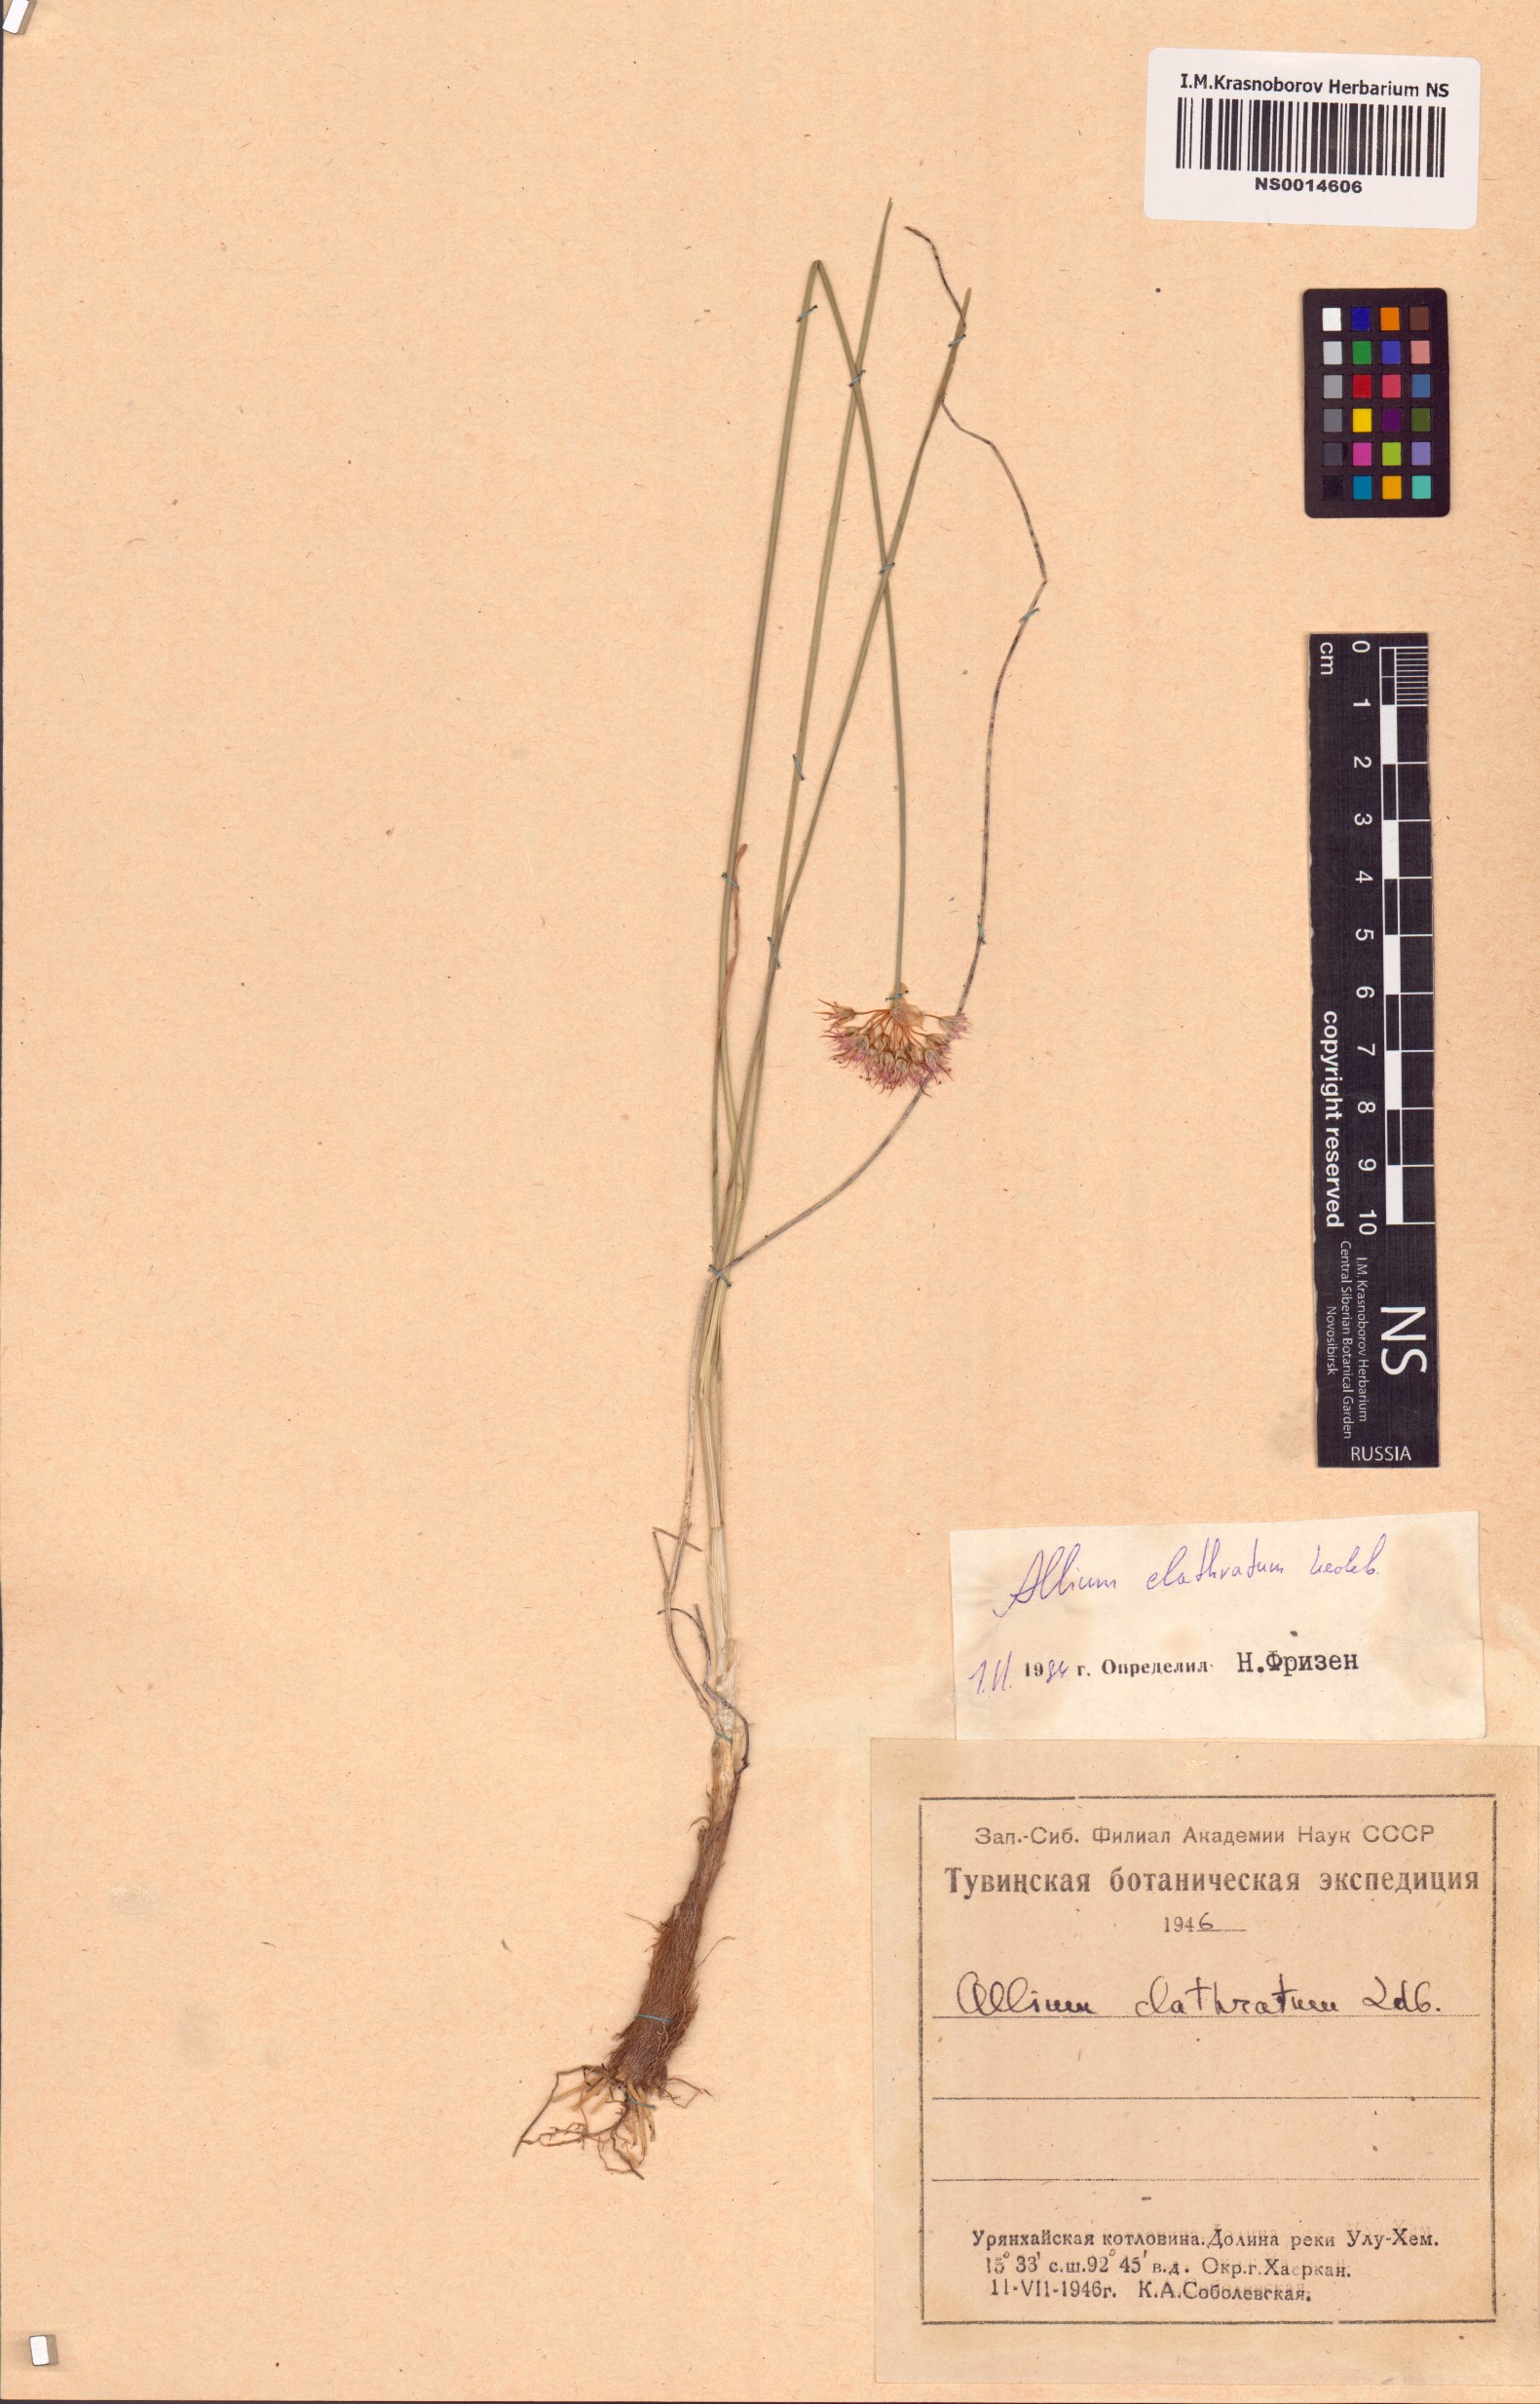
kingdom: Plantae
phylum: Tracheophyta
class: Liliopsida
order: Asparagales
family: Amaryllidaceae
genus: Allium
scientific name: Allium clathratum
